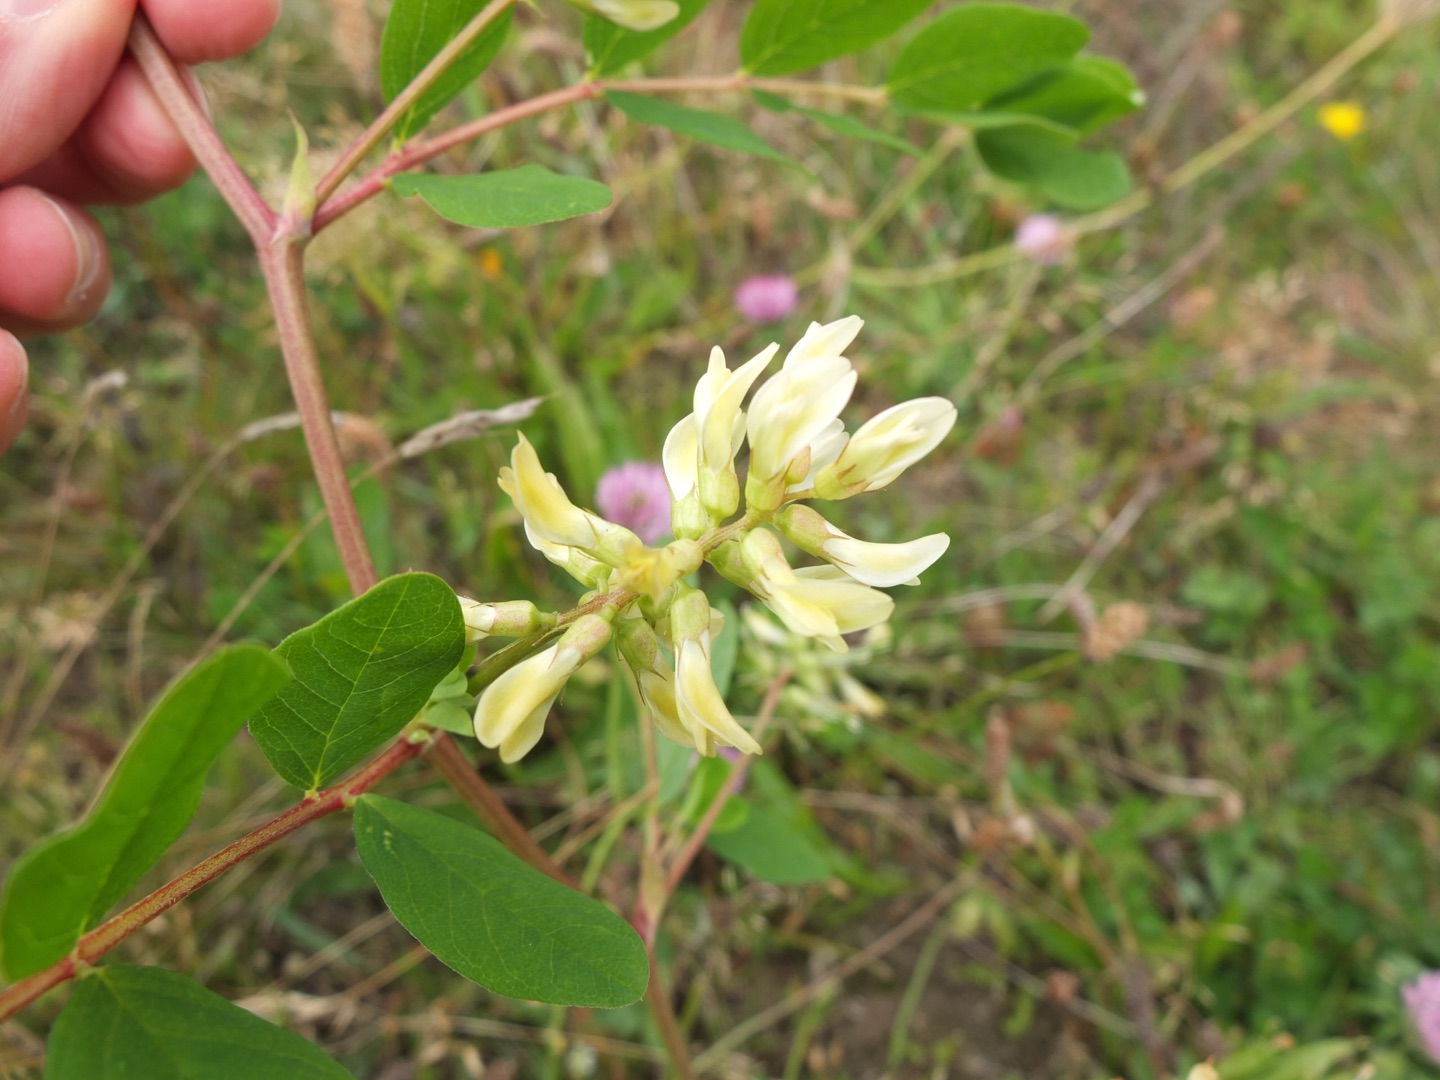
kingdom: Plantae
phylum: Tracheophyta
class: Magnoliopsida
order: Fabales
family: Fabaceae
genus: Astragalus
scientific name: Astragalus glycyphyllos
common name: Sød astragel
